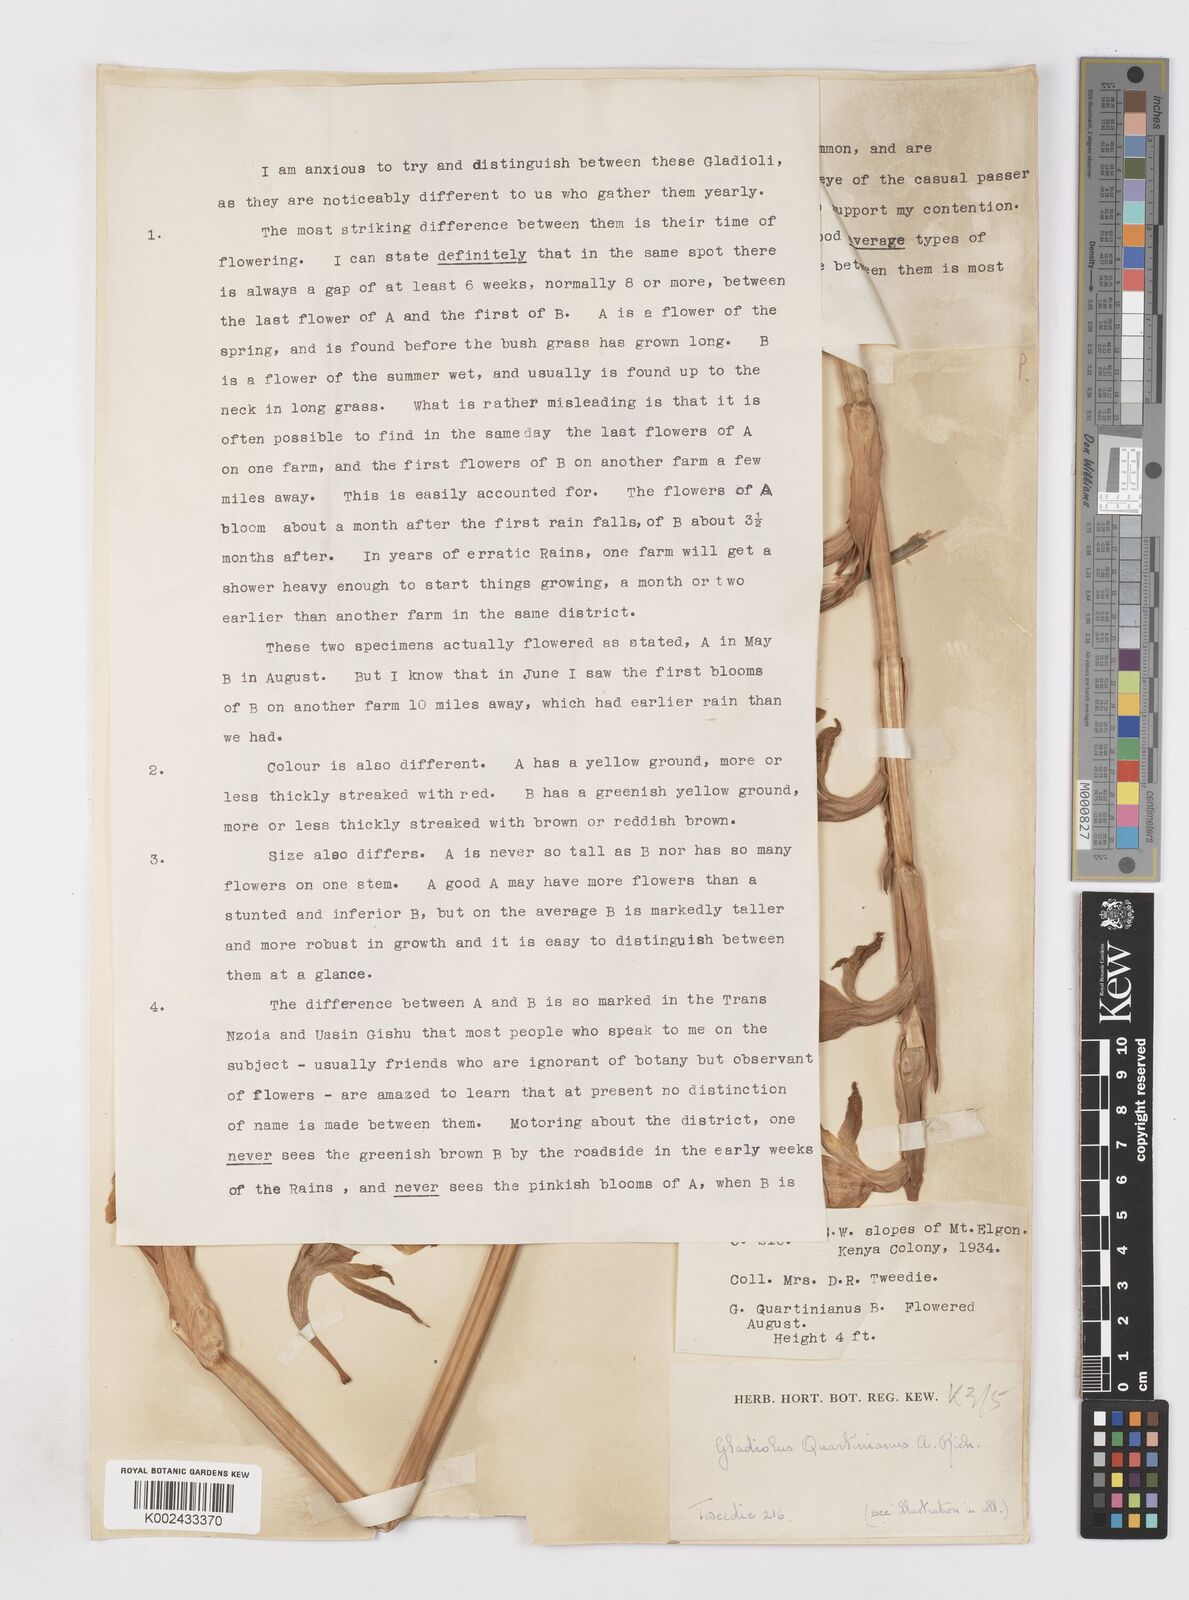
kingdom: Plantae
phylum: Tracheophyta
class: Liliopsida
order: Asparagales
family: Iridaceae
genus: Gladiolus
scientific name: Gladiolus dalenii
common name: Cornflag
